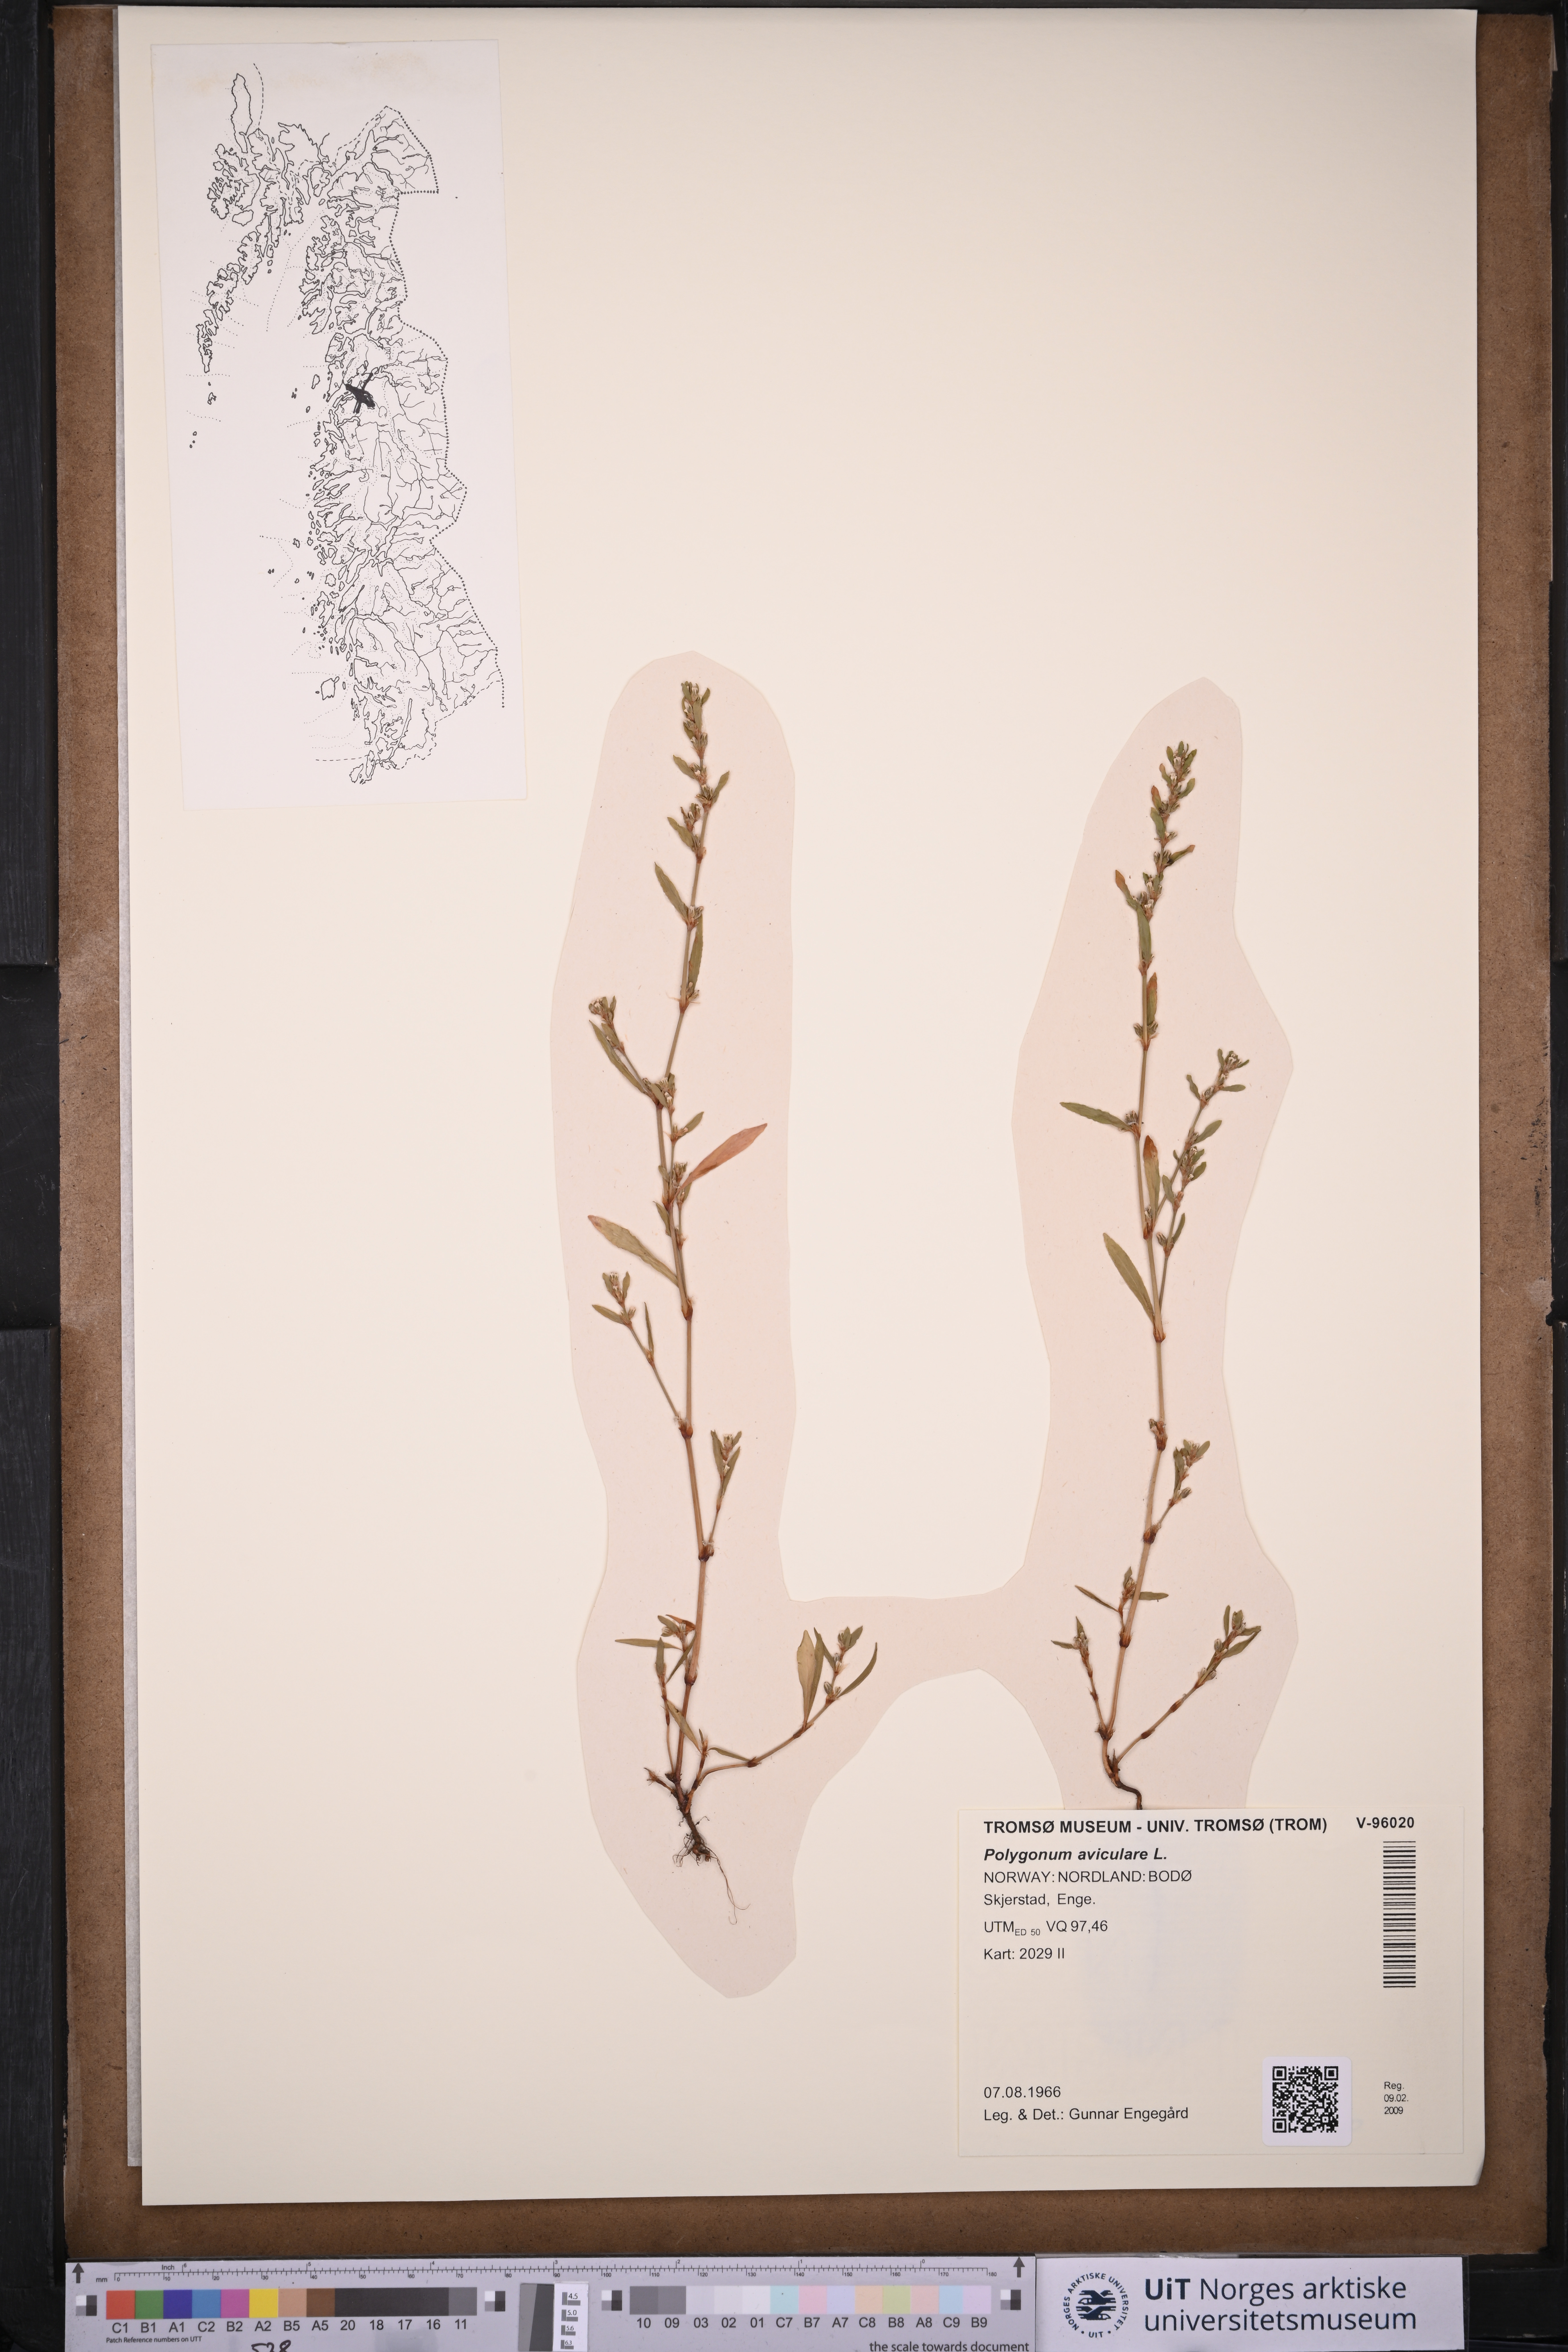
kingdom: Plantae
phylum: Tracheophyta
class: Magnoliopsida
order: Caryophyllales
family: Polygonaceae
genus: Polygonum
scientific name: Polygonum aviculare
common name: Prostrate knotweed
